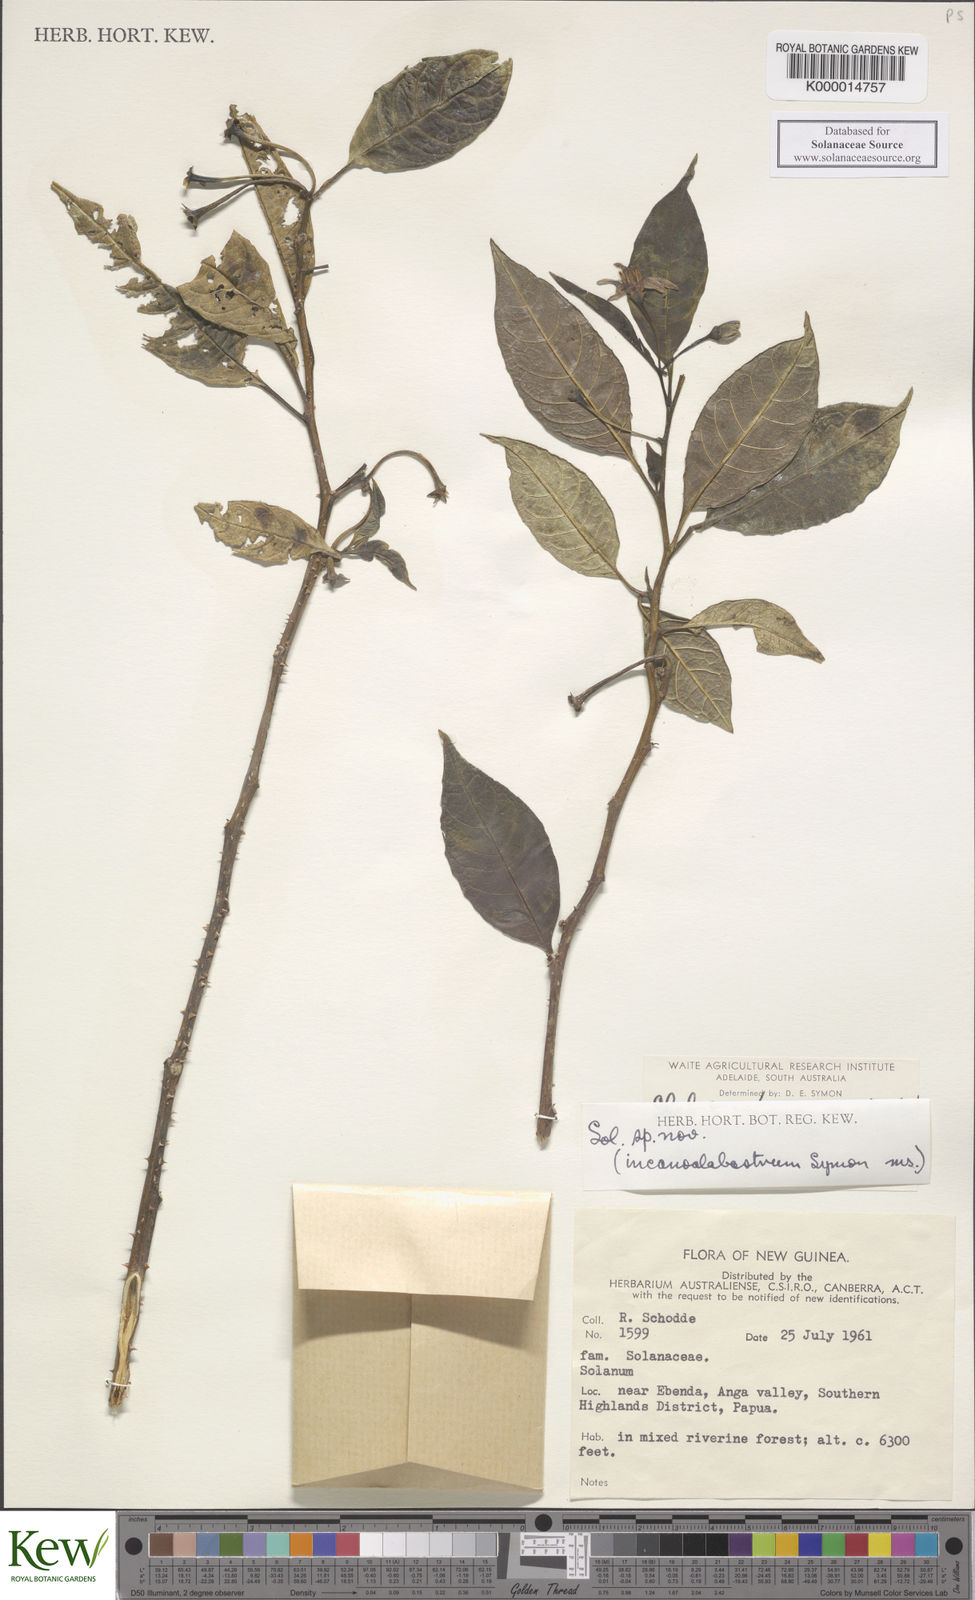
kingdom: Plantae
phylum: Tracheophyta
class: Magnoliopsida
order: Solanales
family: Solanaceae
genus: Solanum
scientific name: Solanum incanoalabastrum
